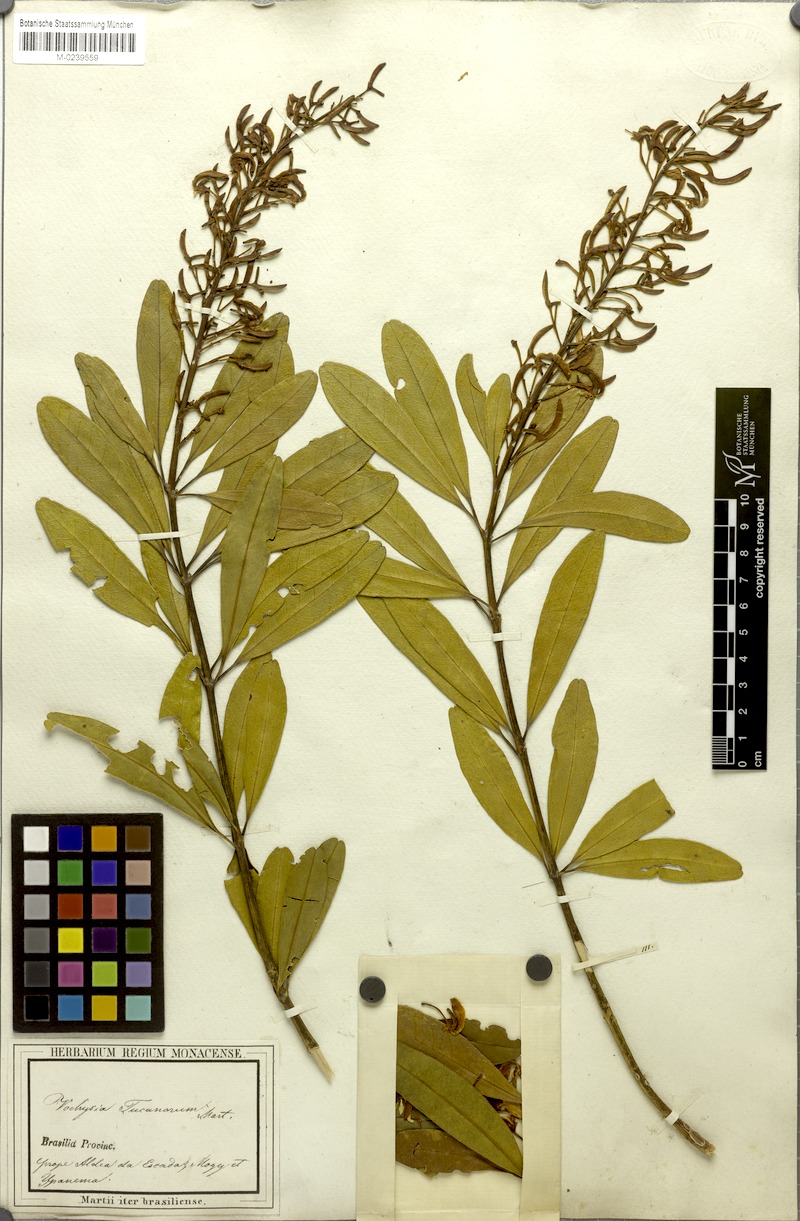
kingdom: Plantae
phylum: Tracheophyta
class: Magnoliopsida
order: Myrtales
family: Vochysiaceae
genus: Vochysia
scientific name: Vochysia tucanorum
